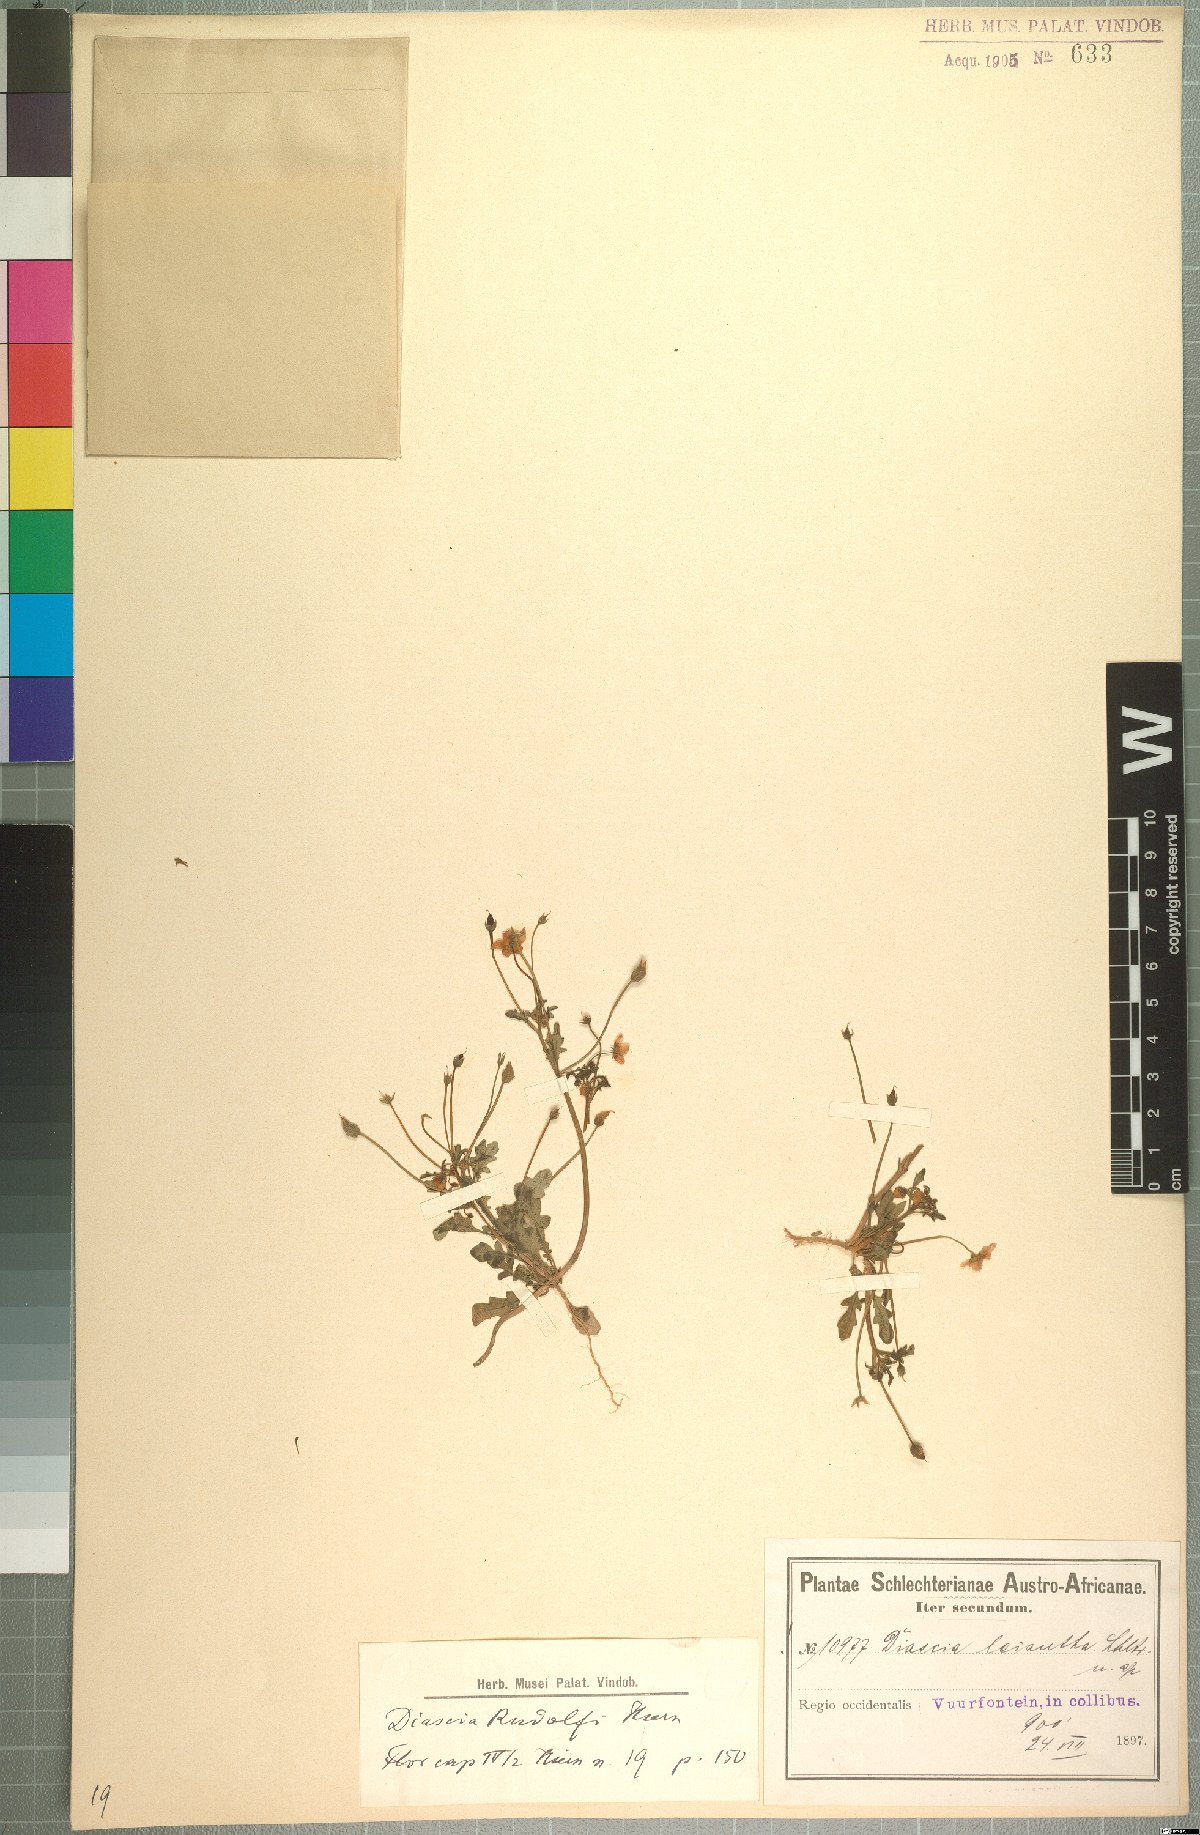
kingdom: Plantae
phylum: Tracheophyta
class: Magnoliopsida
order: Lamiales
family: Scrophulariaceae
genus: Diascia
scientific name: Diascia rudolphii
